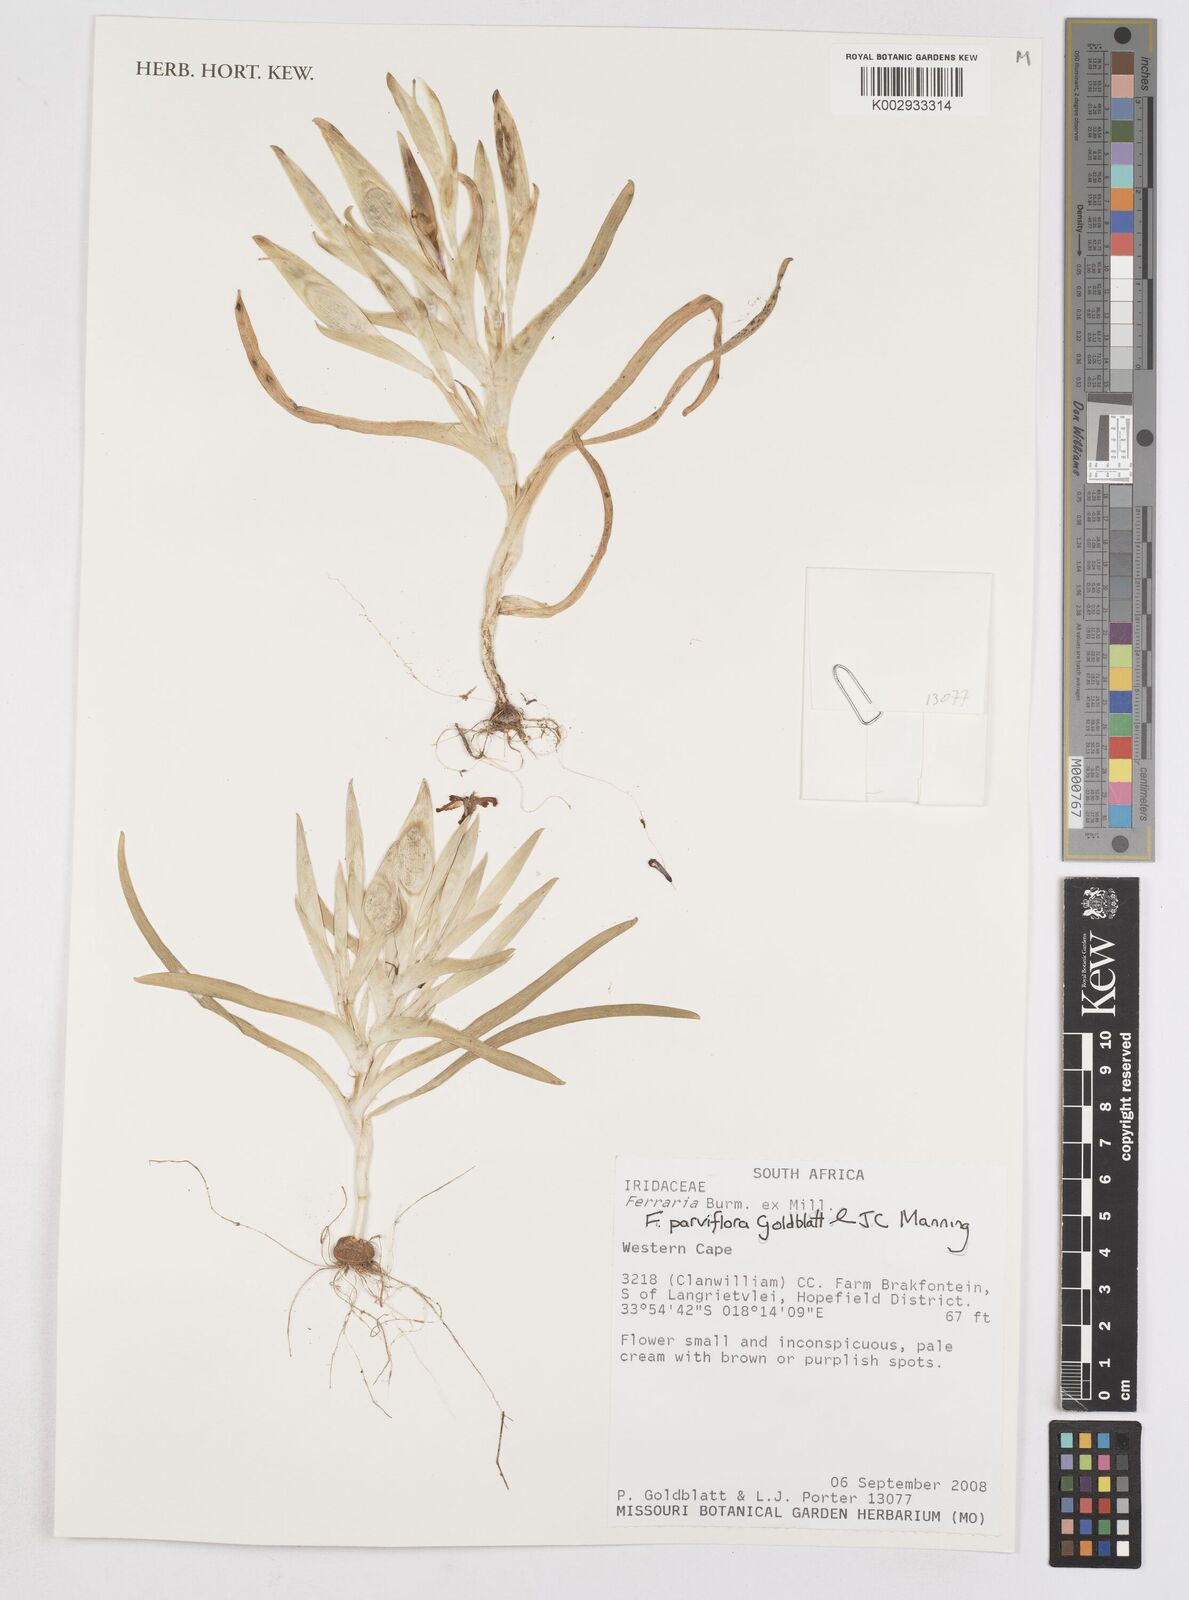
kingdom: Plantae
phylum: Tracheophyta
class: Liliopsida
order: Asparagales
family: Iridaceae
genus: Eleutherine
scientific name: Eleutherine bulbosa
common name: Lagrimas de la virgen
